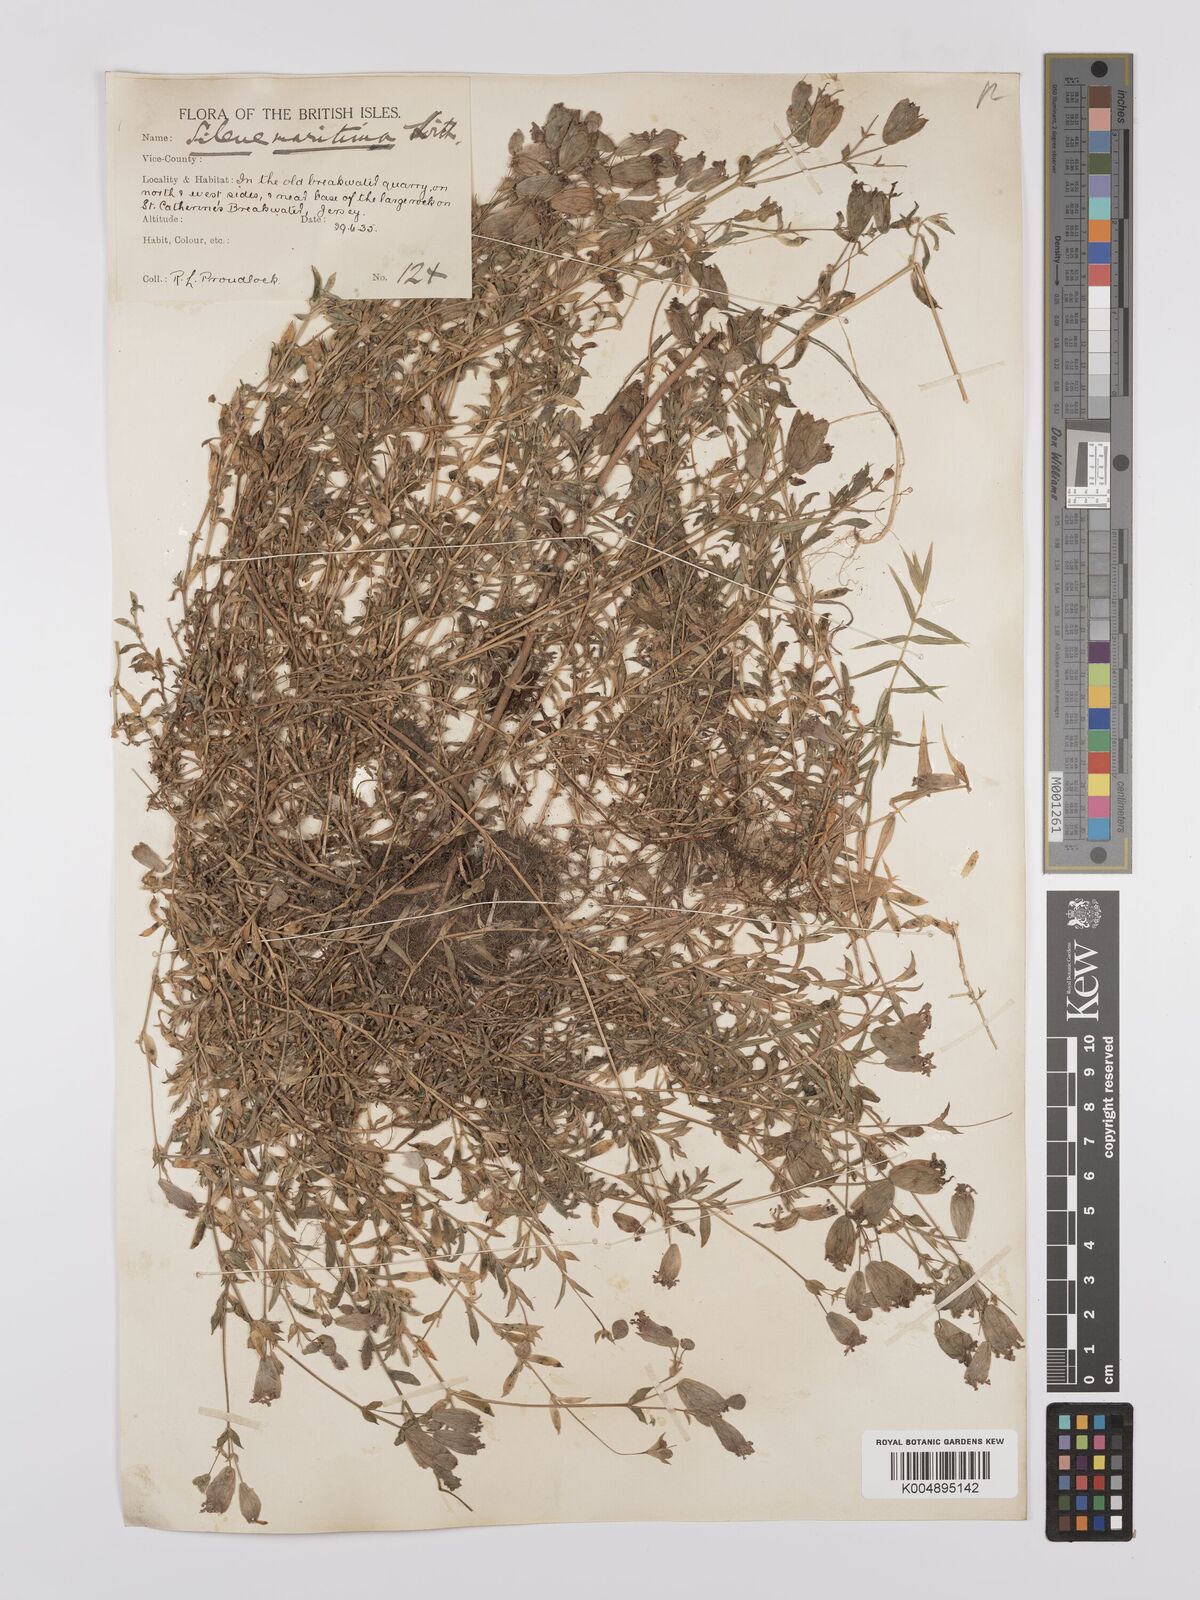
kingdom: Plantae
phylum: Tracheophyta
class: Magnoliopsida
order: Caryophyllales
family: Caryophyllaceae
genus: Silene
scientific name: Silene uniflora
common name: Sea campion
